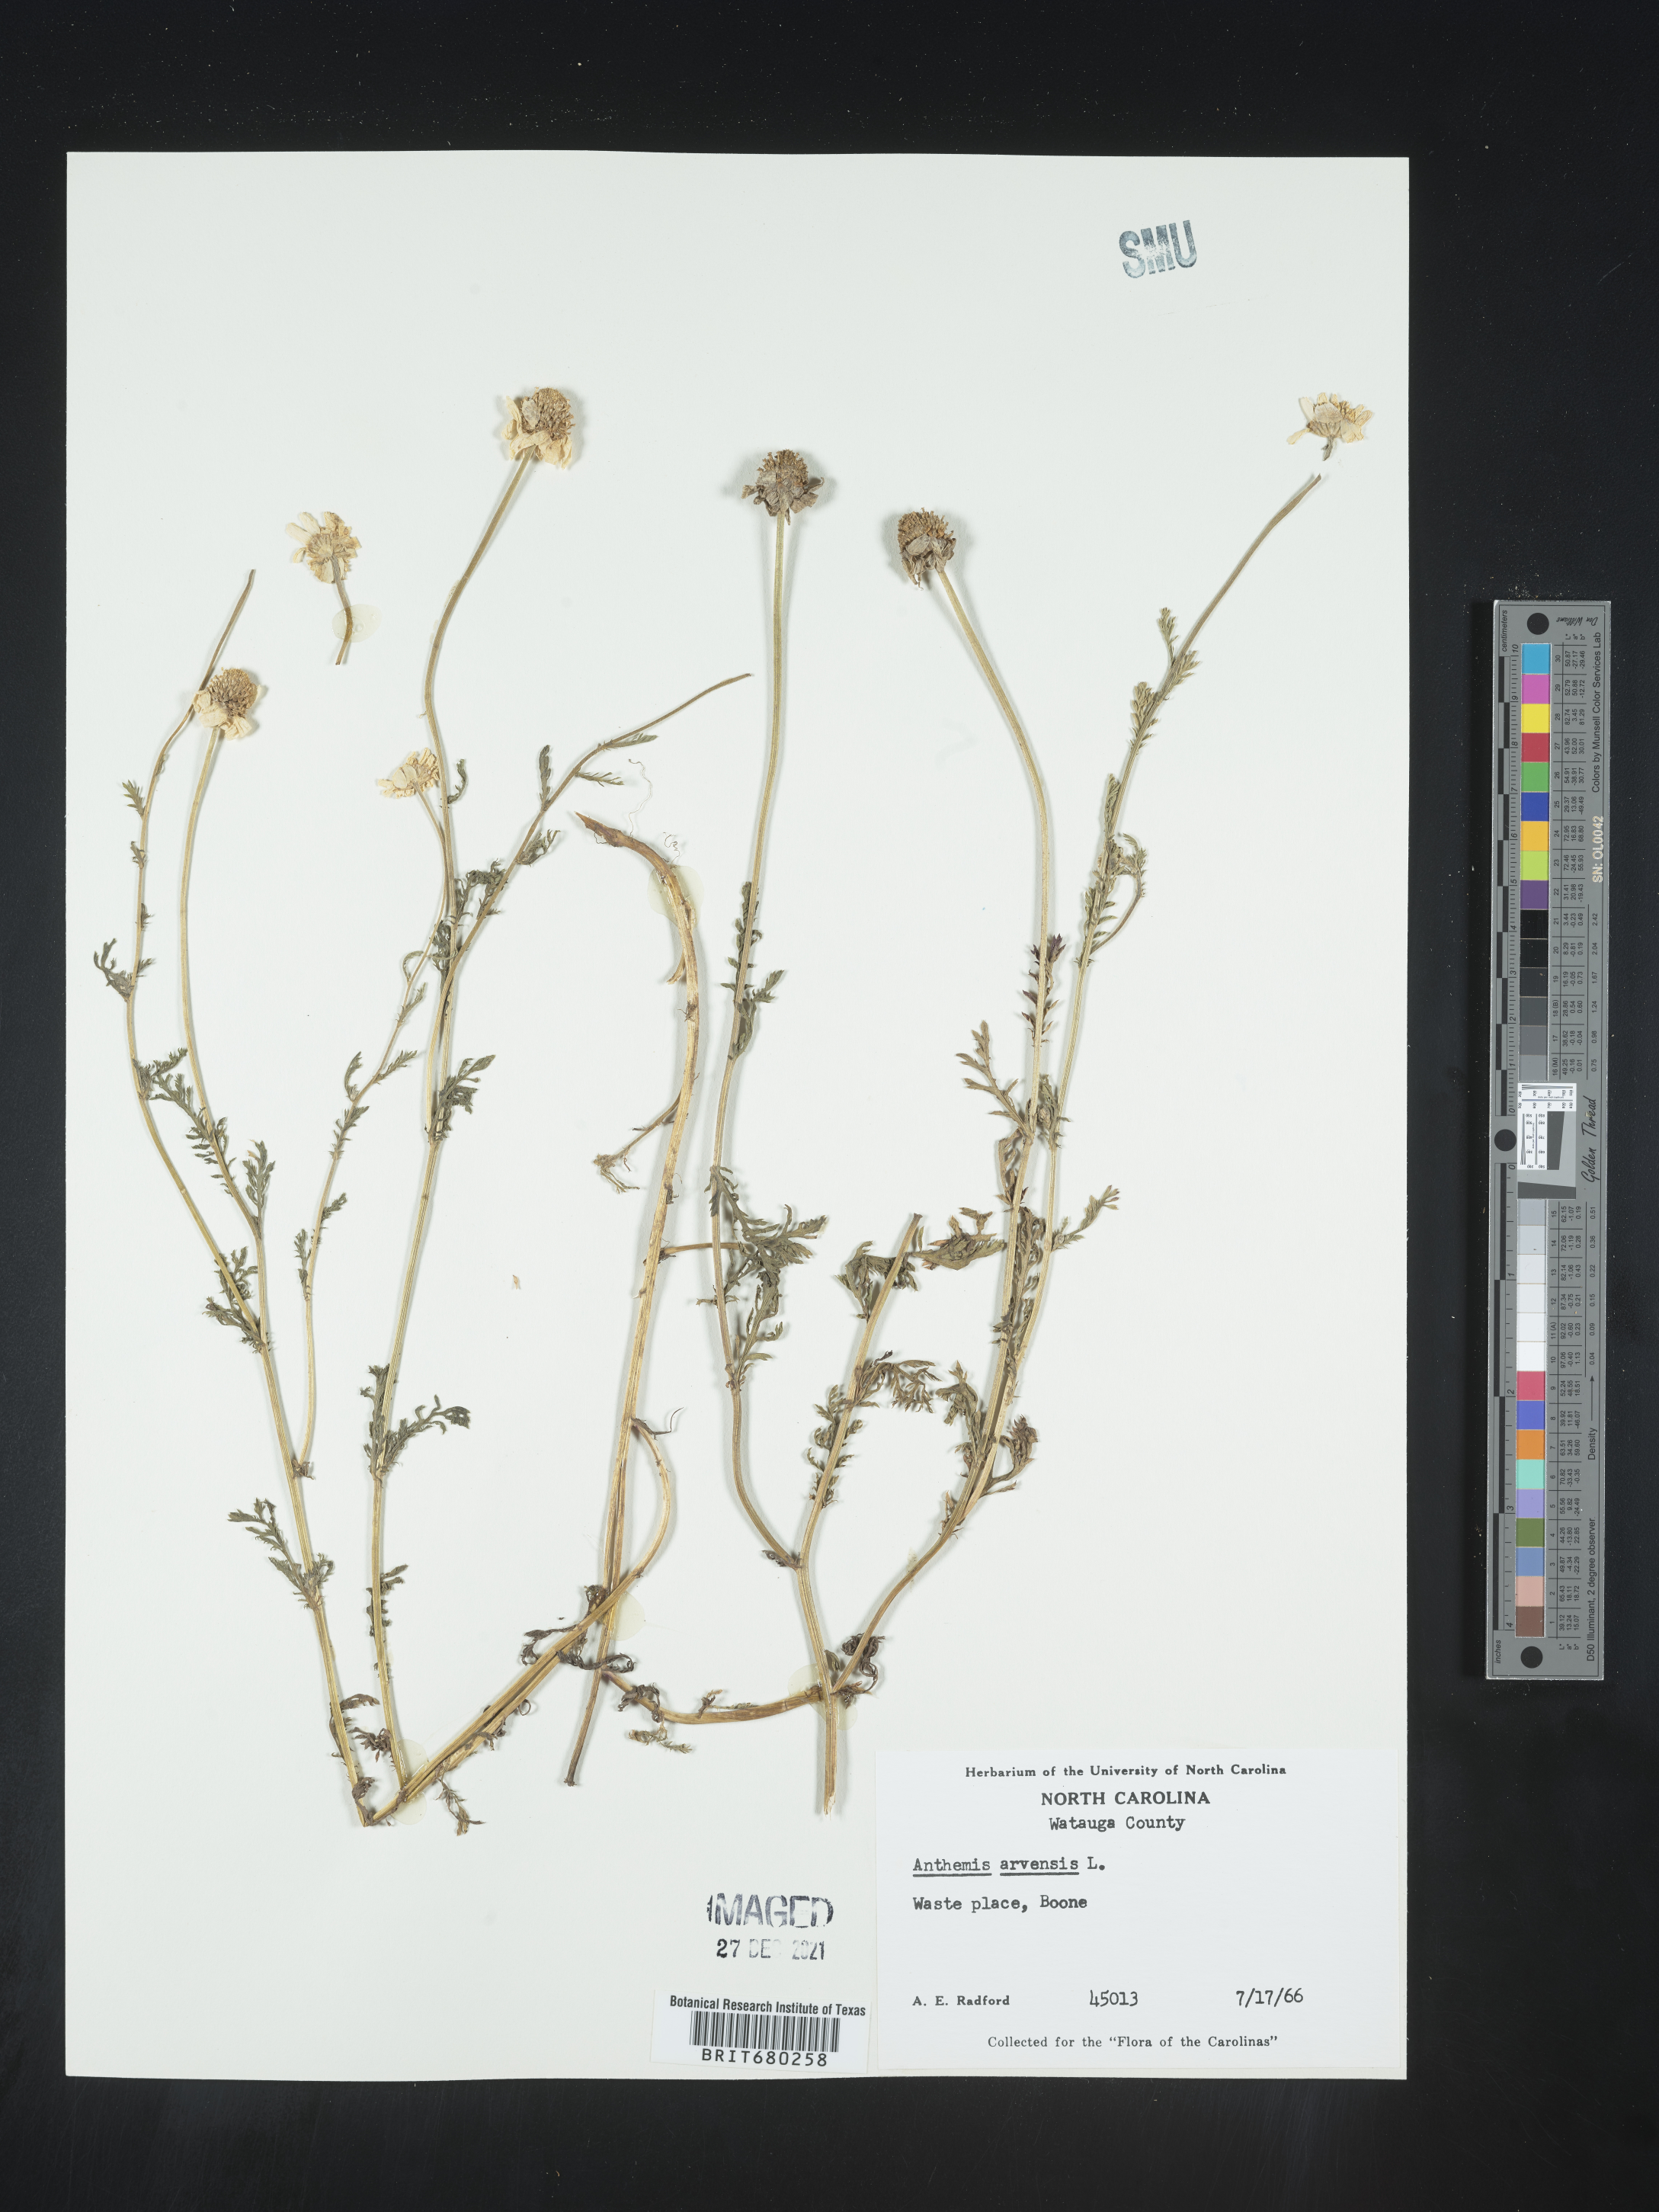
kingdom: Plantae
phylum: Tracheophyta
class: Magnoliopsida
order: Asterales
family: Asteraceae
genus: Anthemis
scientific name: Anthemis arvensis
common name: Corn chamomile
